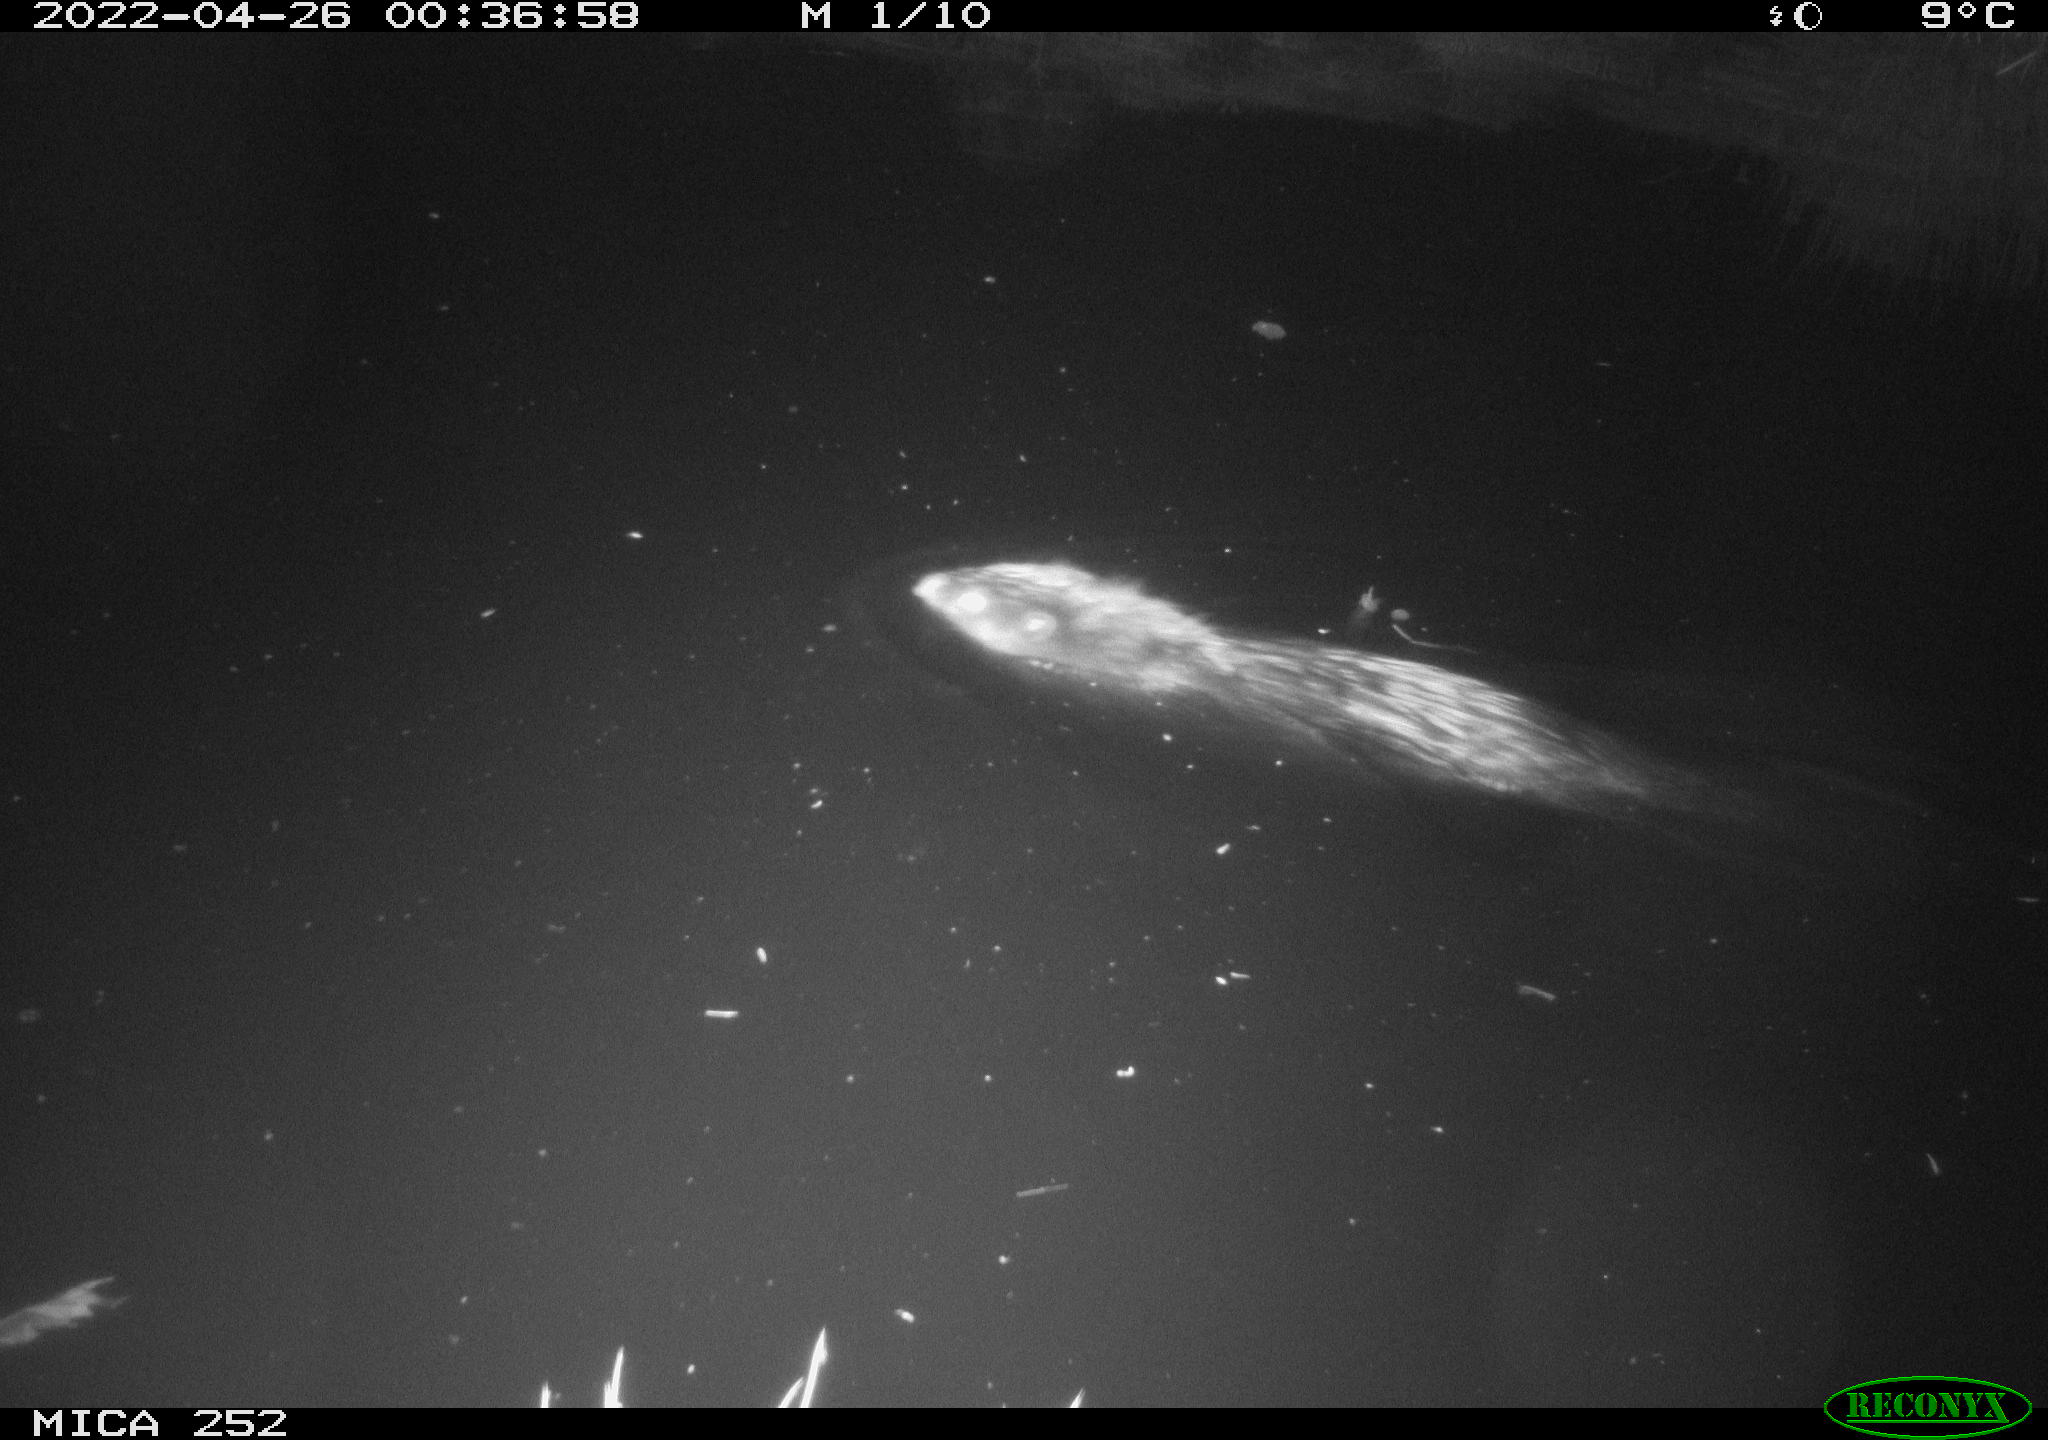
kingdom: Animalia
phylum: Chordata
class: Mammalia
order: Rodentia
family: Castoridae
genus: Castor
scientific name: Castor fiber
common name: Eurasian beaver
